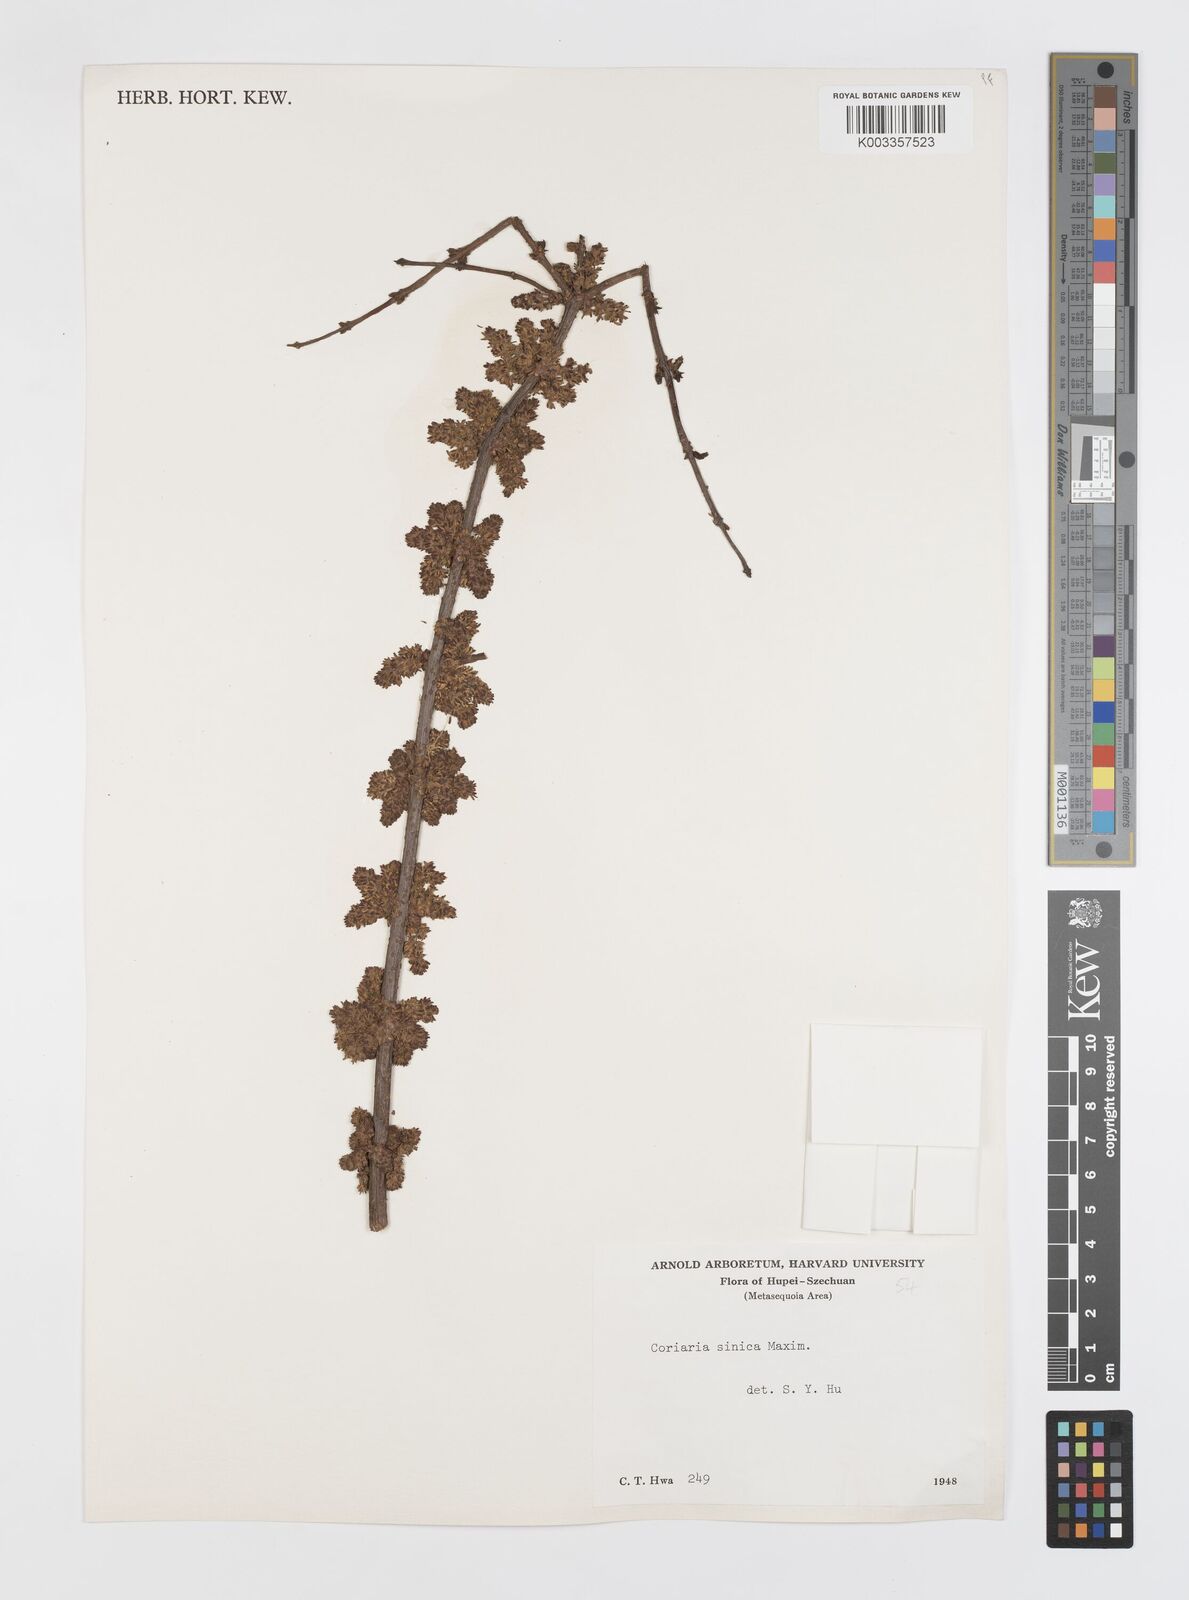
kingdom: Plantae
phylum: Tracheophyta
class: Magnoliopsida
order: Cucurbitales
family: Coriariaceae
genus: Coriaria
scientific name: Coriaria napalensis
